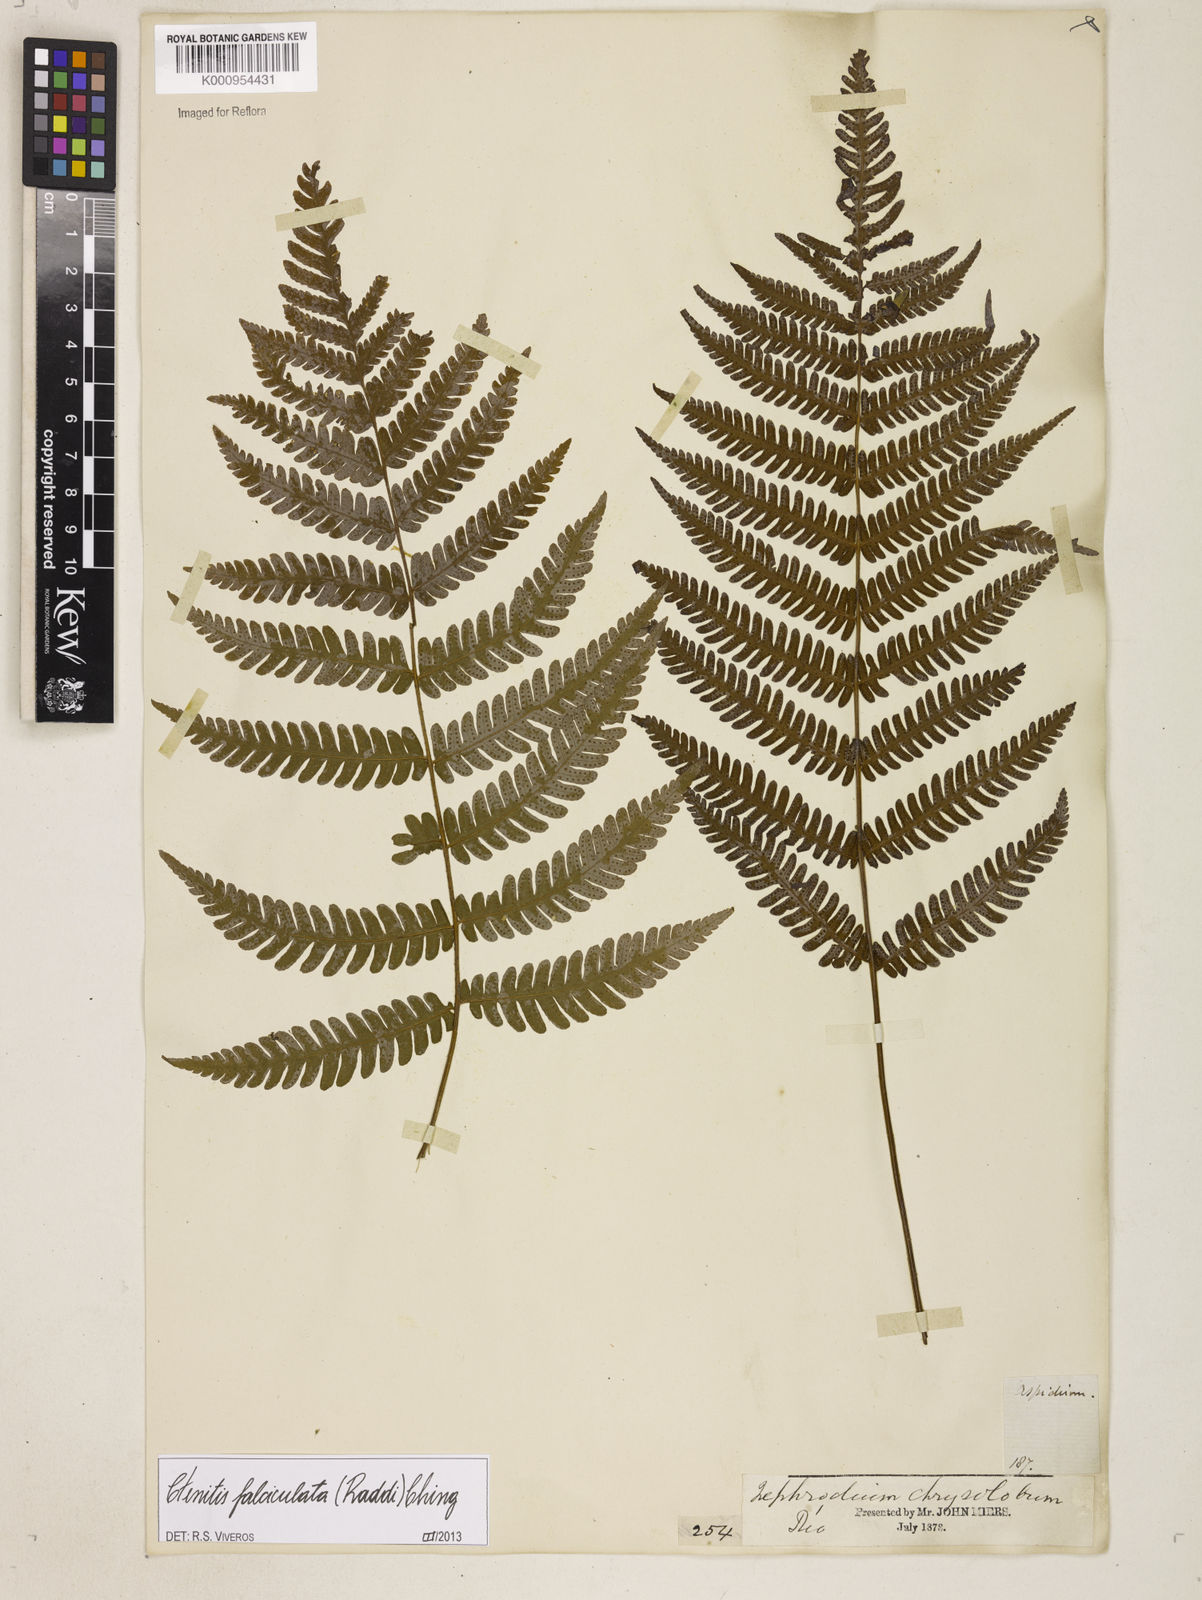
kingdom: Plantae
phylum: Tracheophyta
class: Polypodiopsida
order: Polypodiales
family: Dryopteridaceae
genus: Ctenitis
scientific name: Ctenitis falciculata
